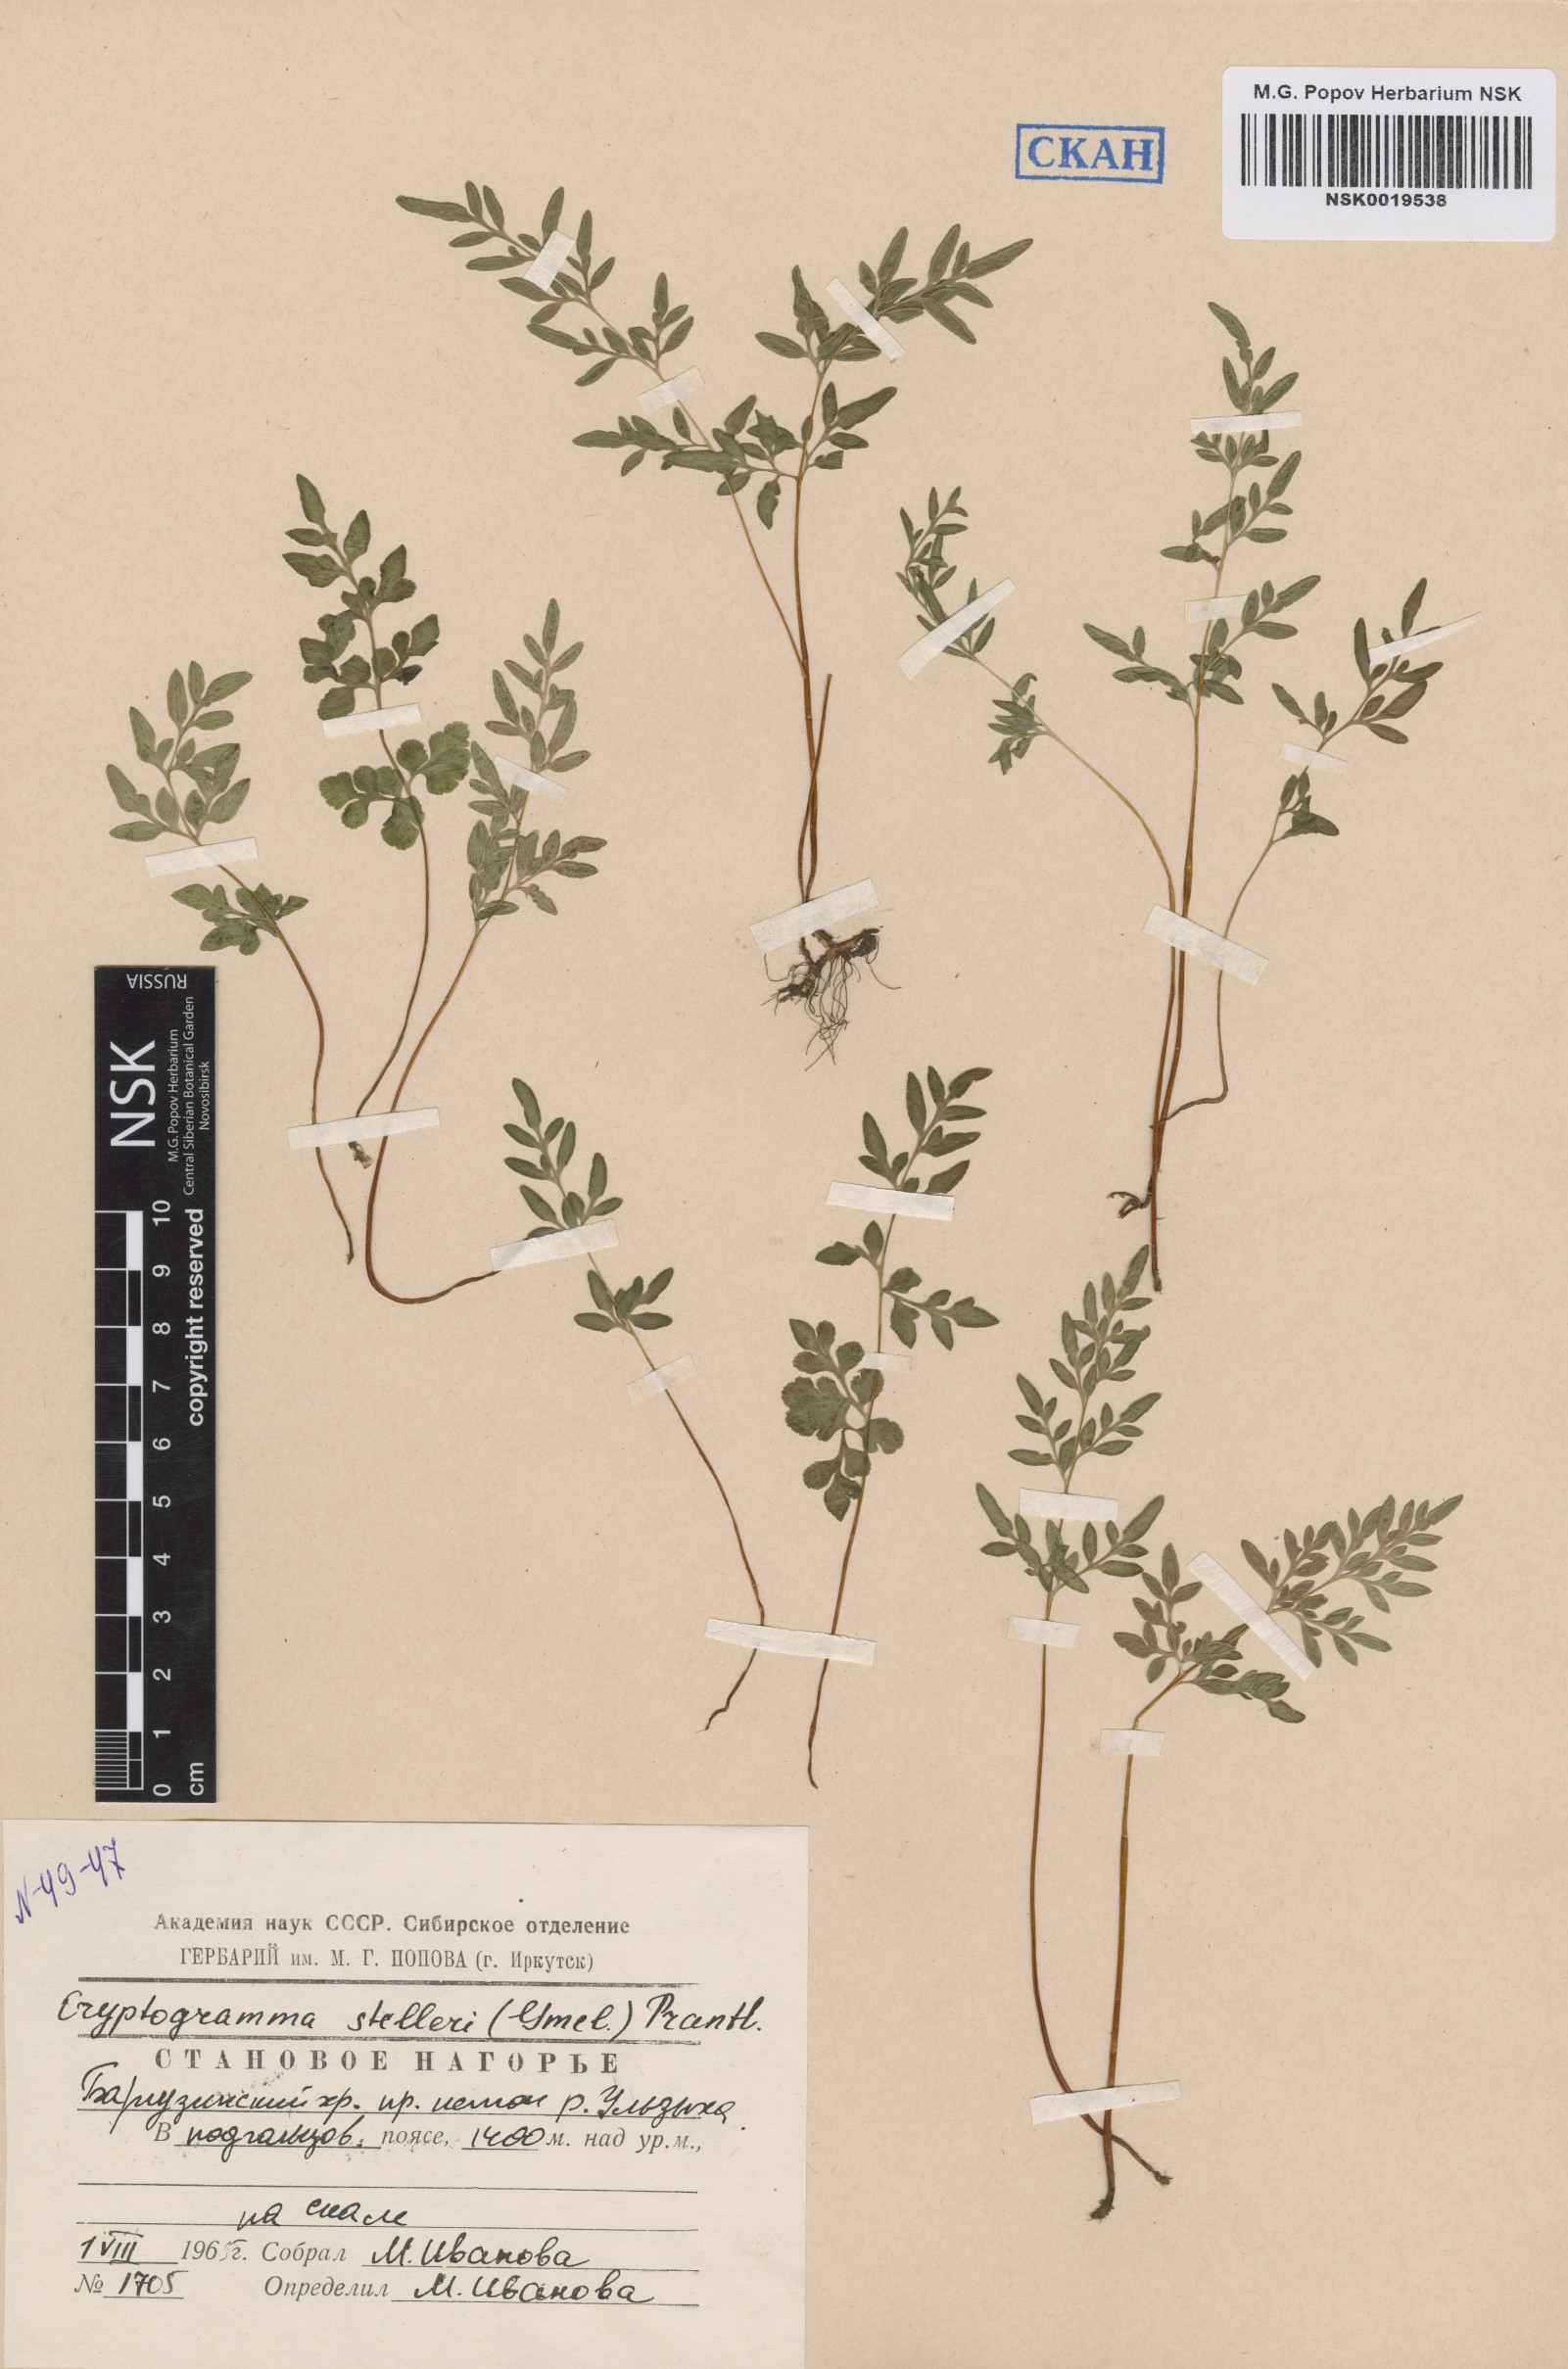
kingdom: Plantae
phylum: Tracheophyta
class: Polypodiopsida
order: Polypodiales
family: Pteridaceae
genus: Cryptogramma
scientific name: Cryptogramma stelleri
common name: Cliff-brake
